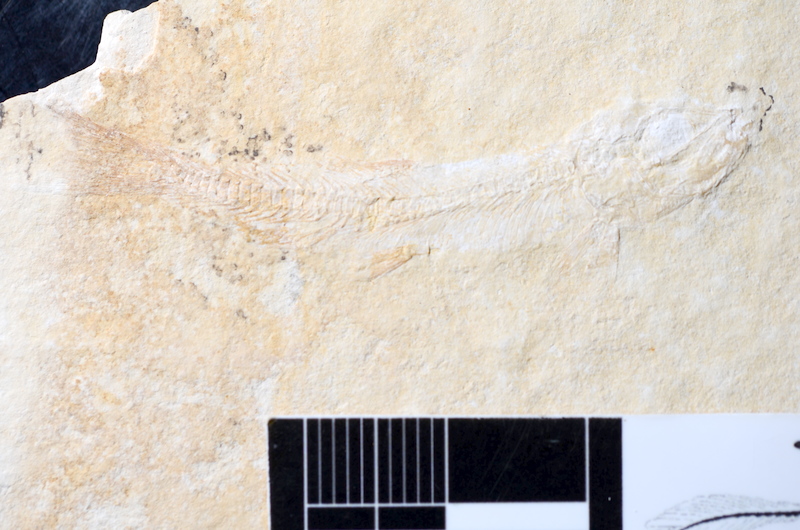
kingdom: Animalia
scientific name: Animalia
